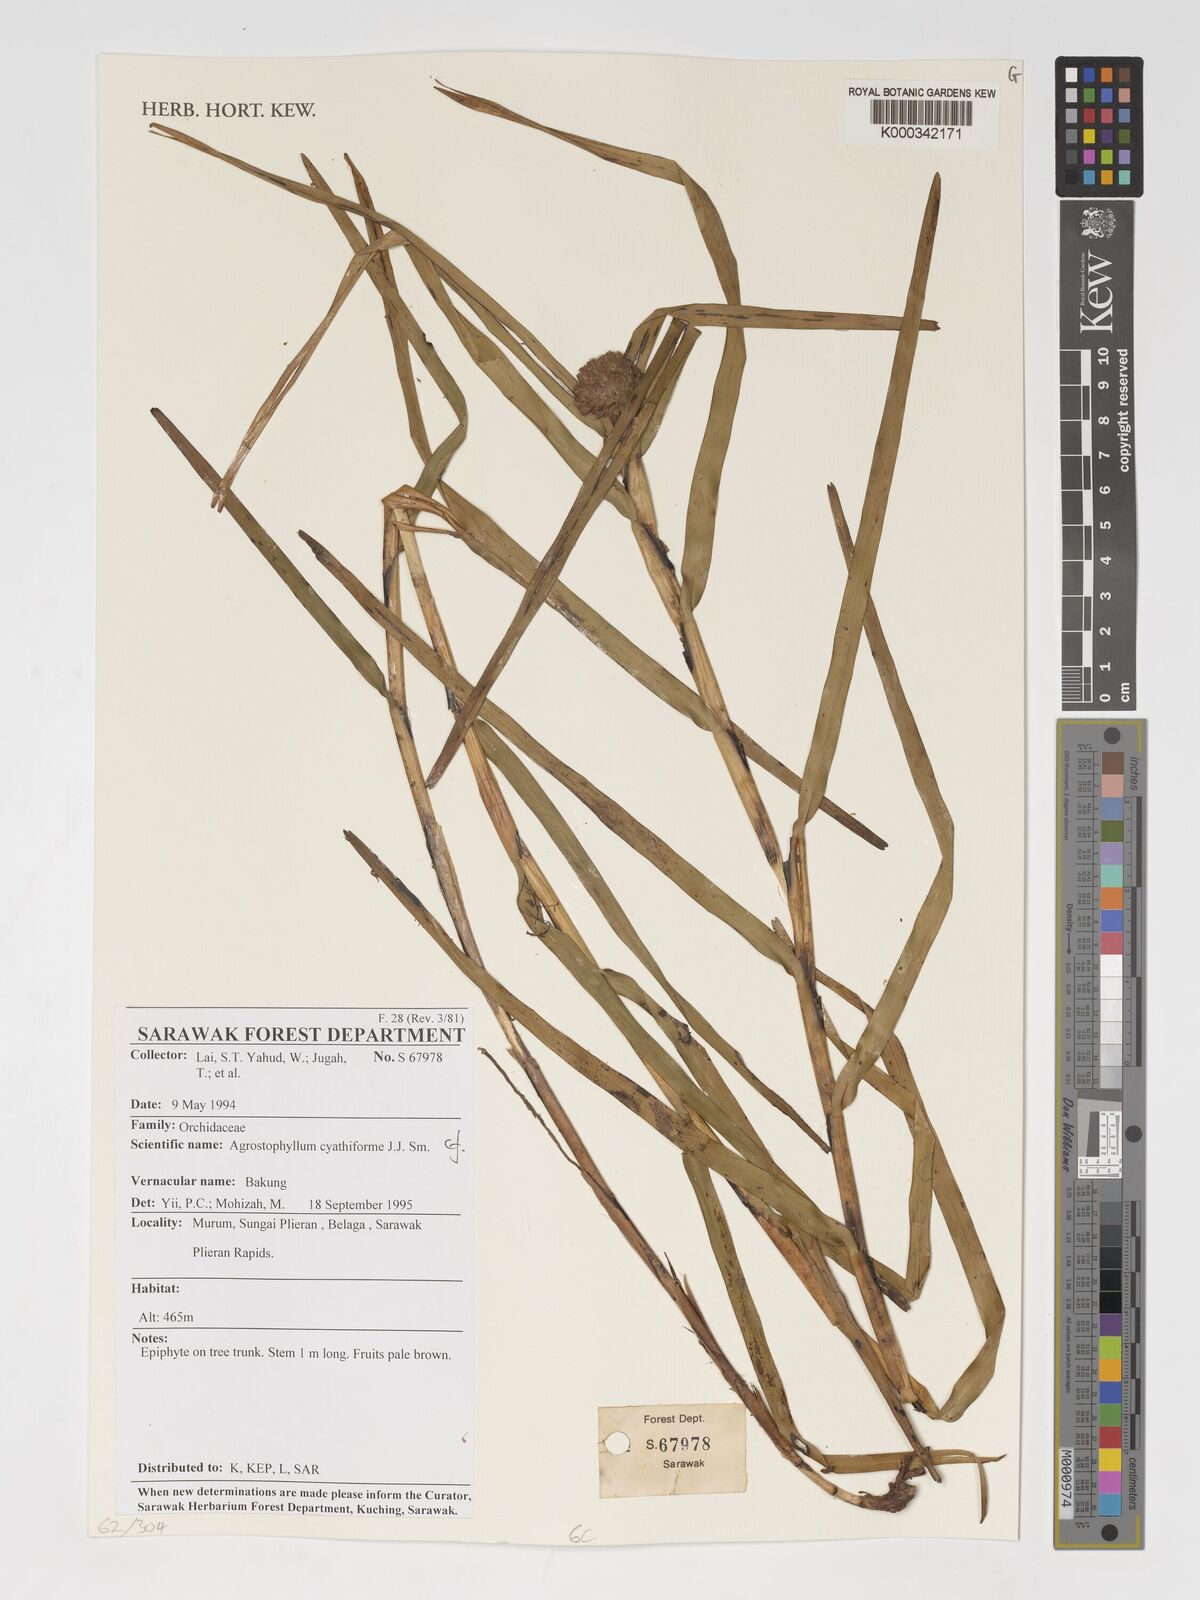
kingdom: Plantae
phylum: Tracheophyta
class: Liliopsida
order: Asparagales
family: Orchidaceae
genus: Agrostophyllum
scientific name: Agrostophyllum cyathiforme
